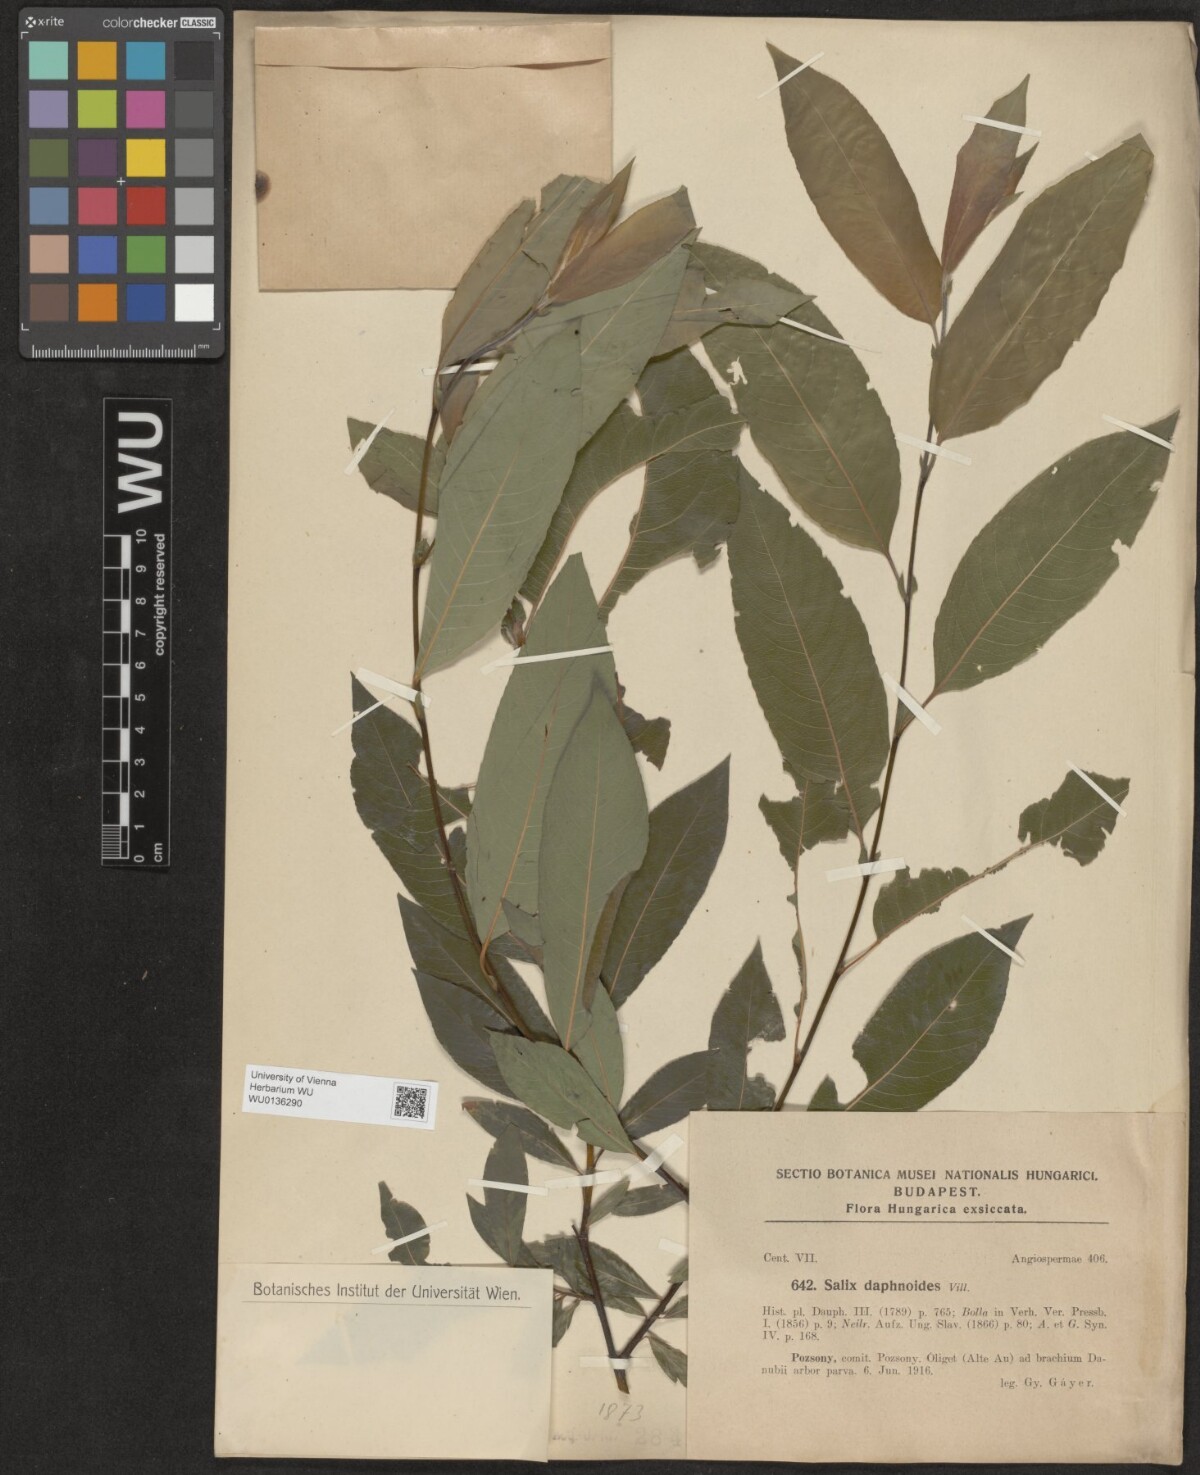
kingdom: Plantae
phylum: Tracheophyta
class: Magnoliopsida
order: Malpighiales
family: Salicaceae
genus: Salix
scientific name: Salix daphnoides
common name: European violet-willow
